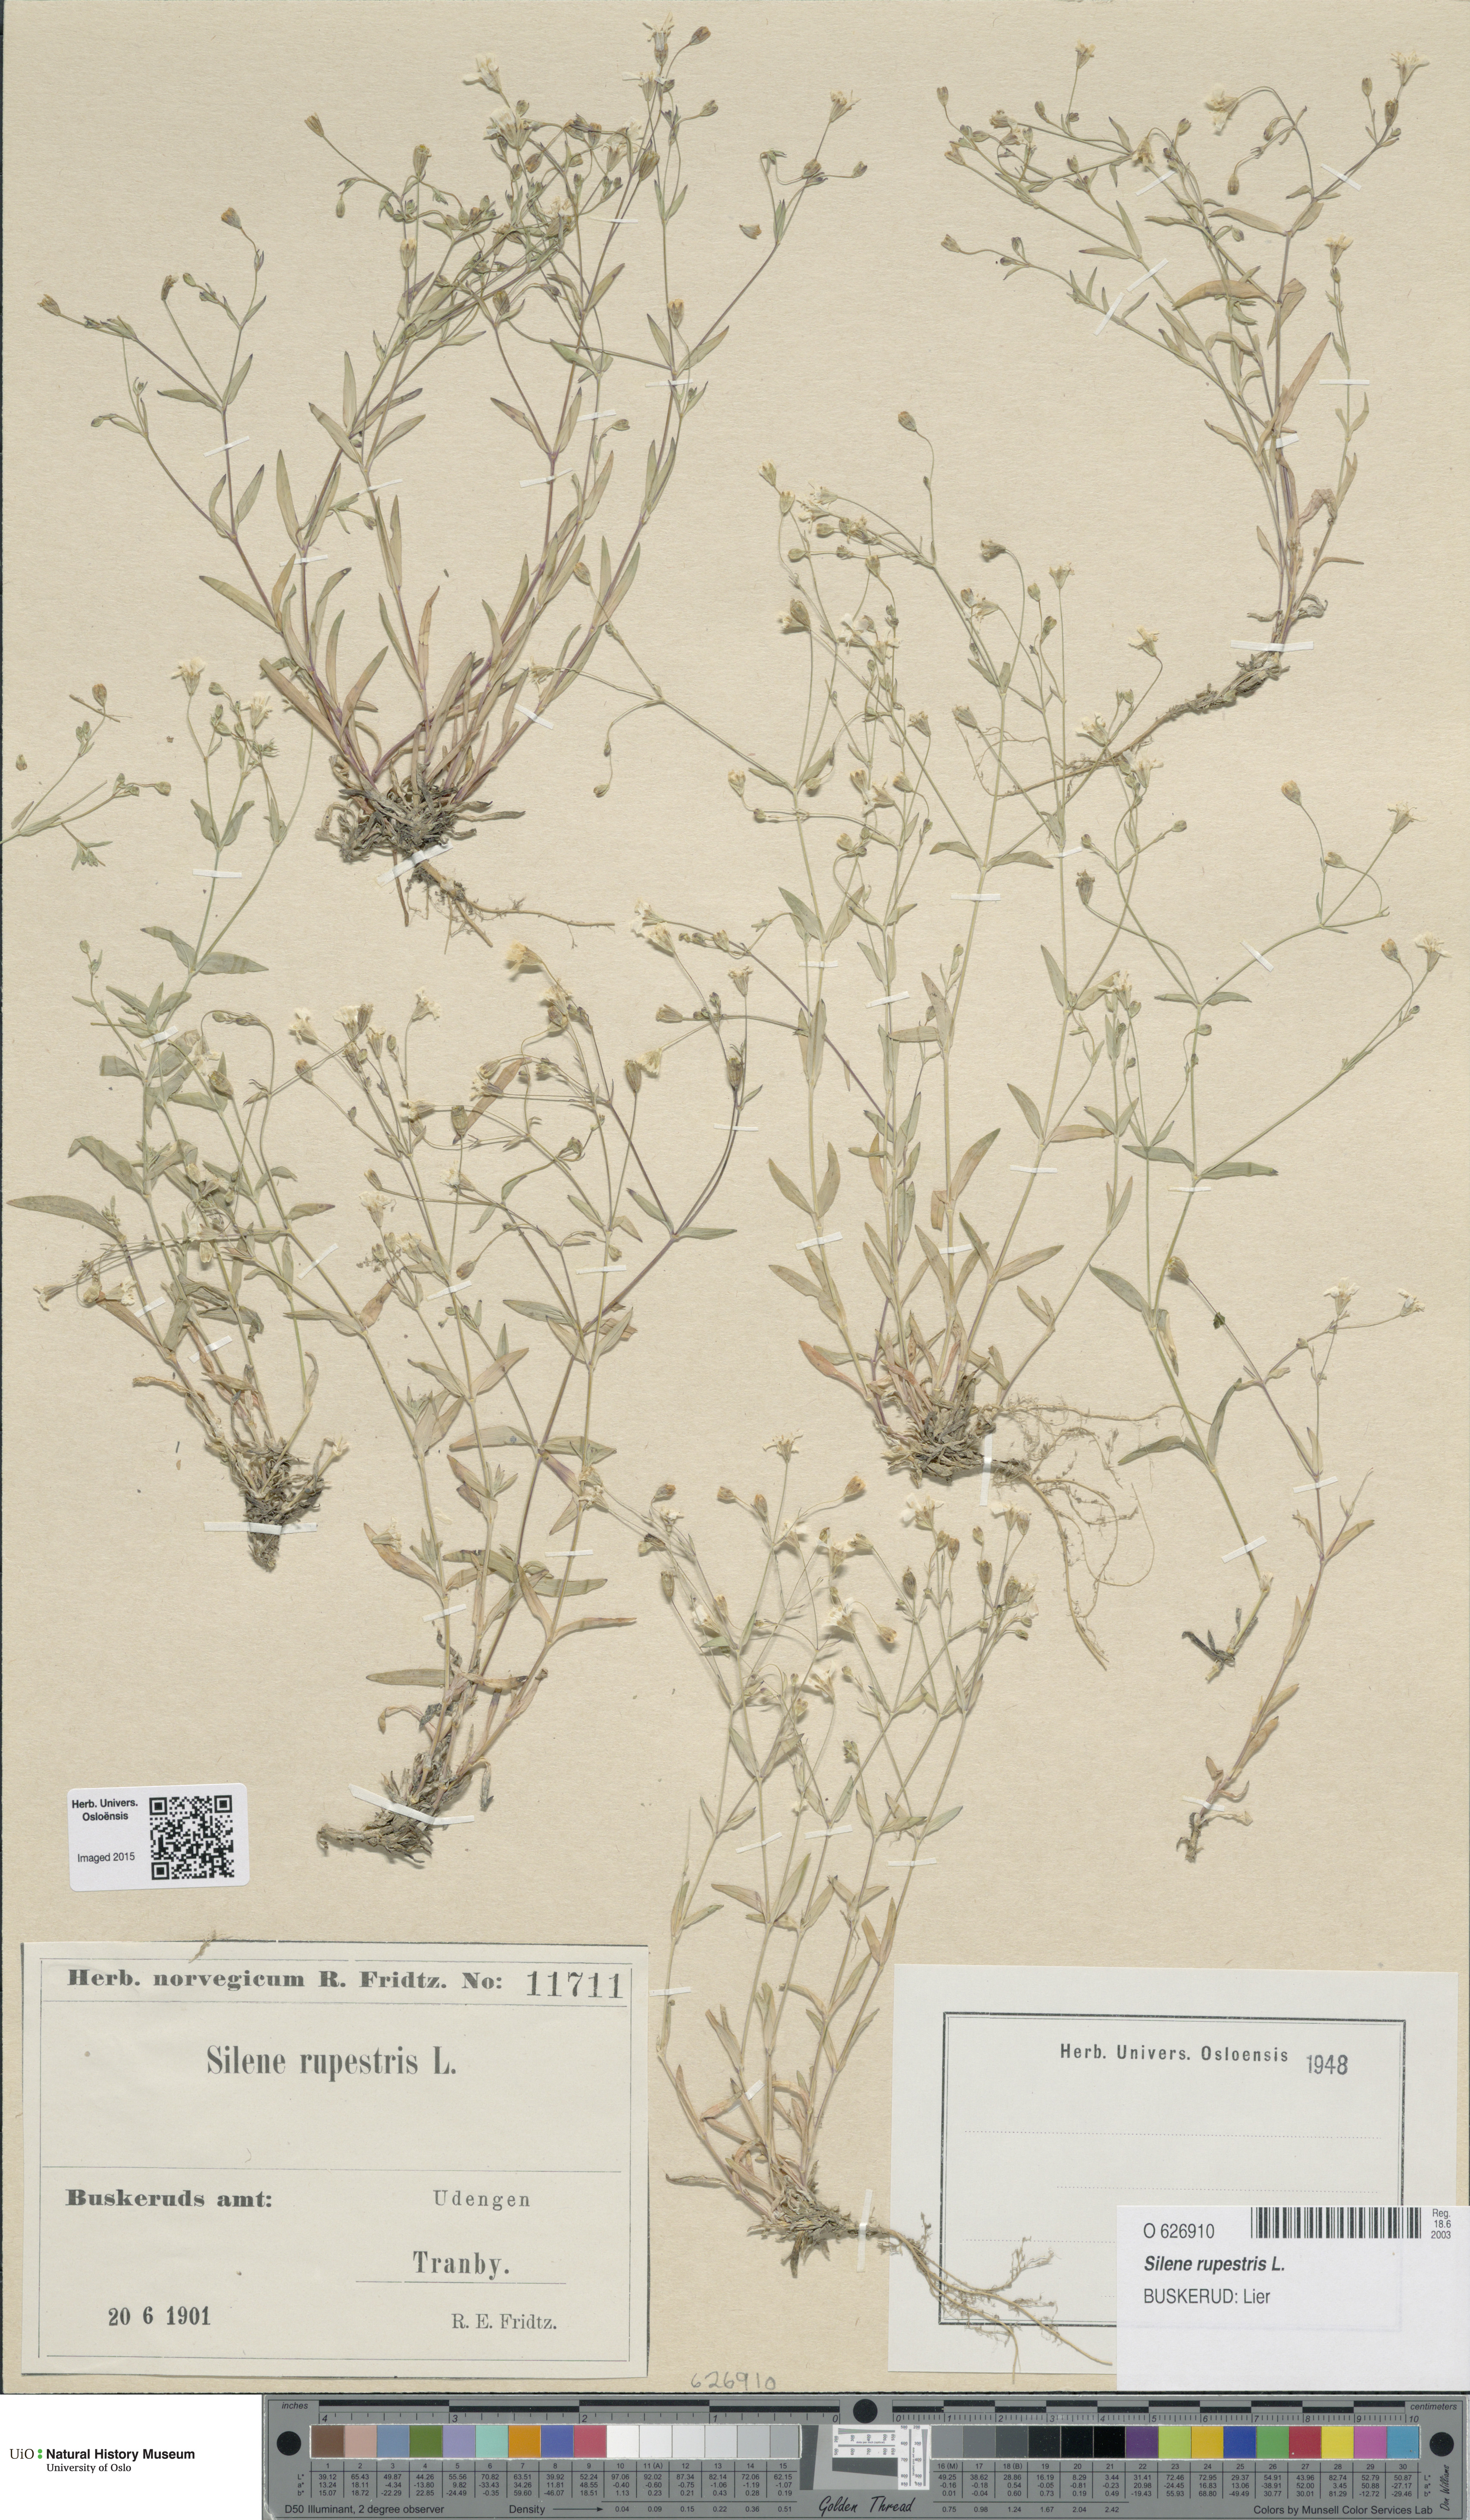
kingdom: Plantae
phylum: Tracheophyta
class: Magnoliopsida
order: Caryophyllales
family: Caryophyllaceae
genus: Atocion
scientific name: Atocion rupestre
